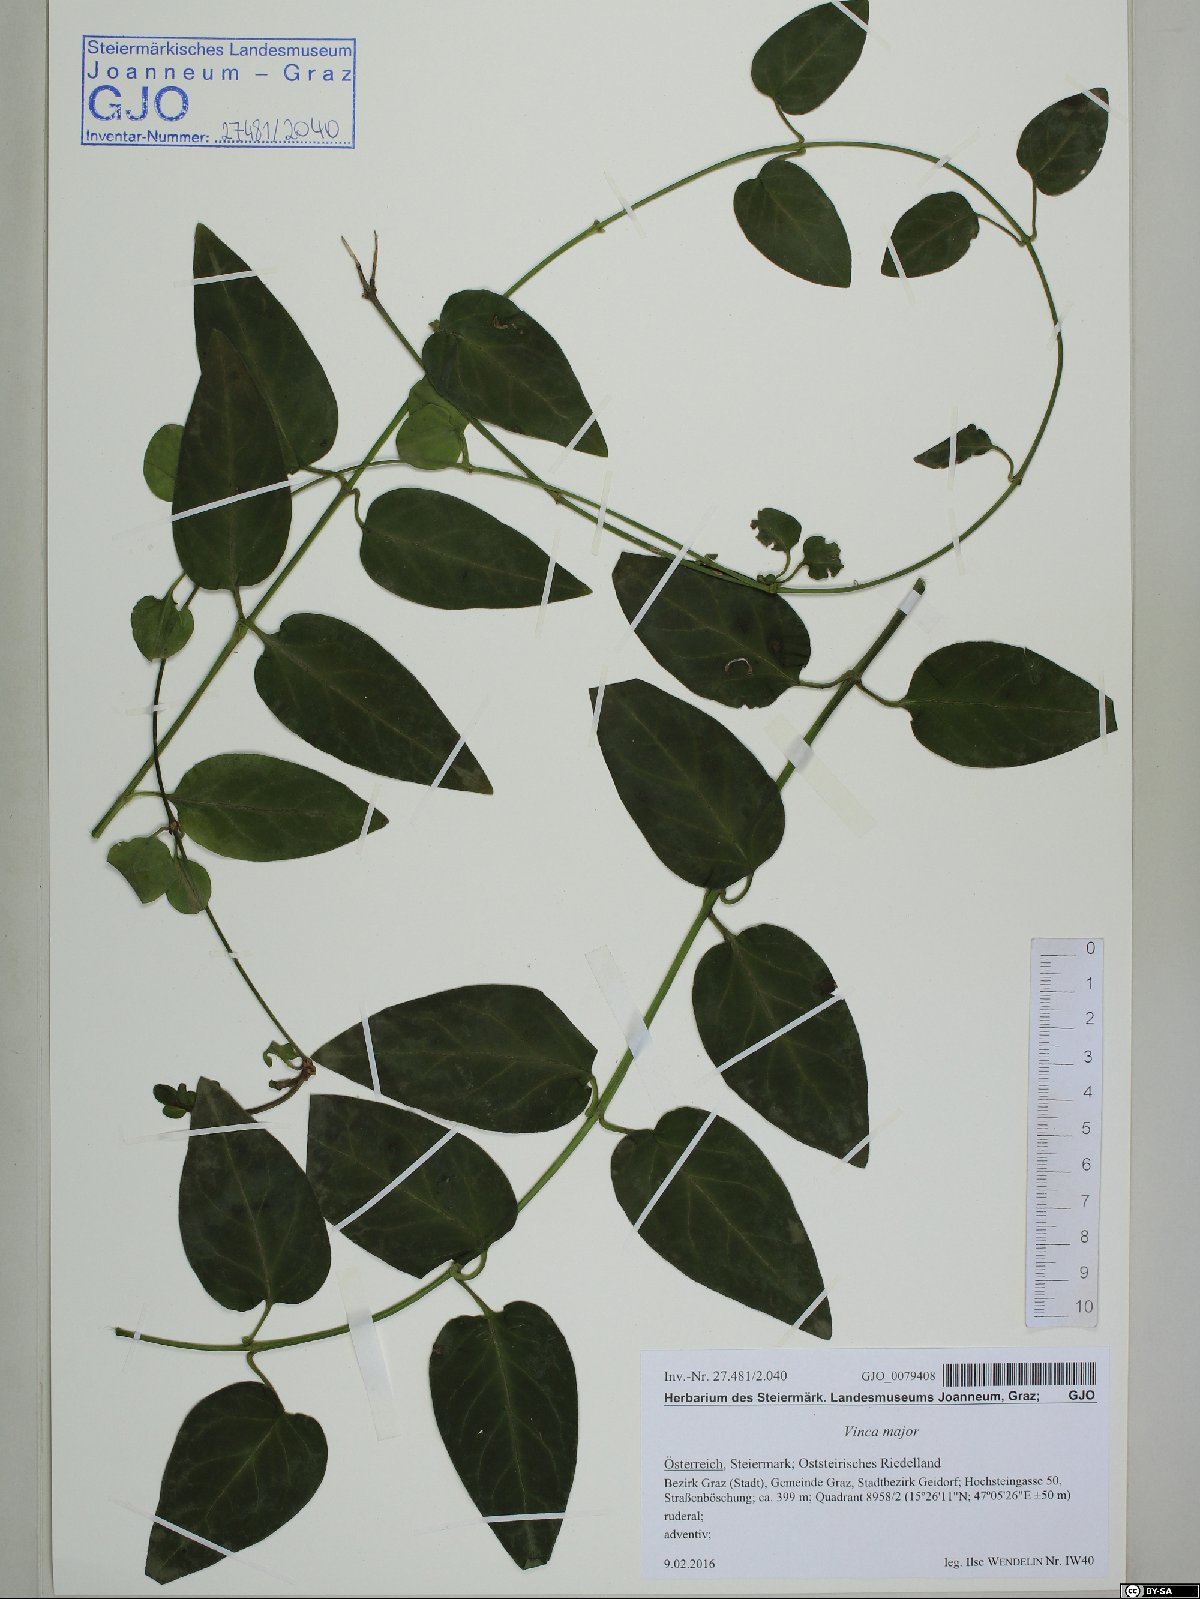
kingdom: Plantae
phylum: Tracheophyta
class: Magnoliopsida
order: Gentianales
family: Apocynaceae
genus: Vinca
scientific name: Vinca major
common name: Greater periwinkle
